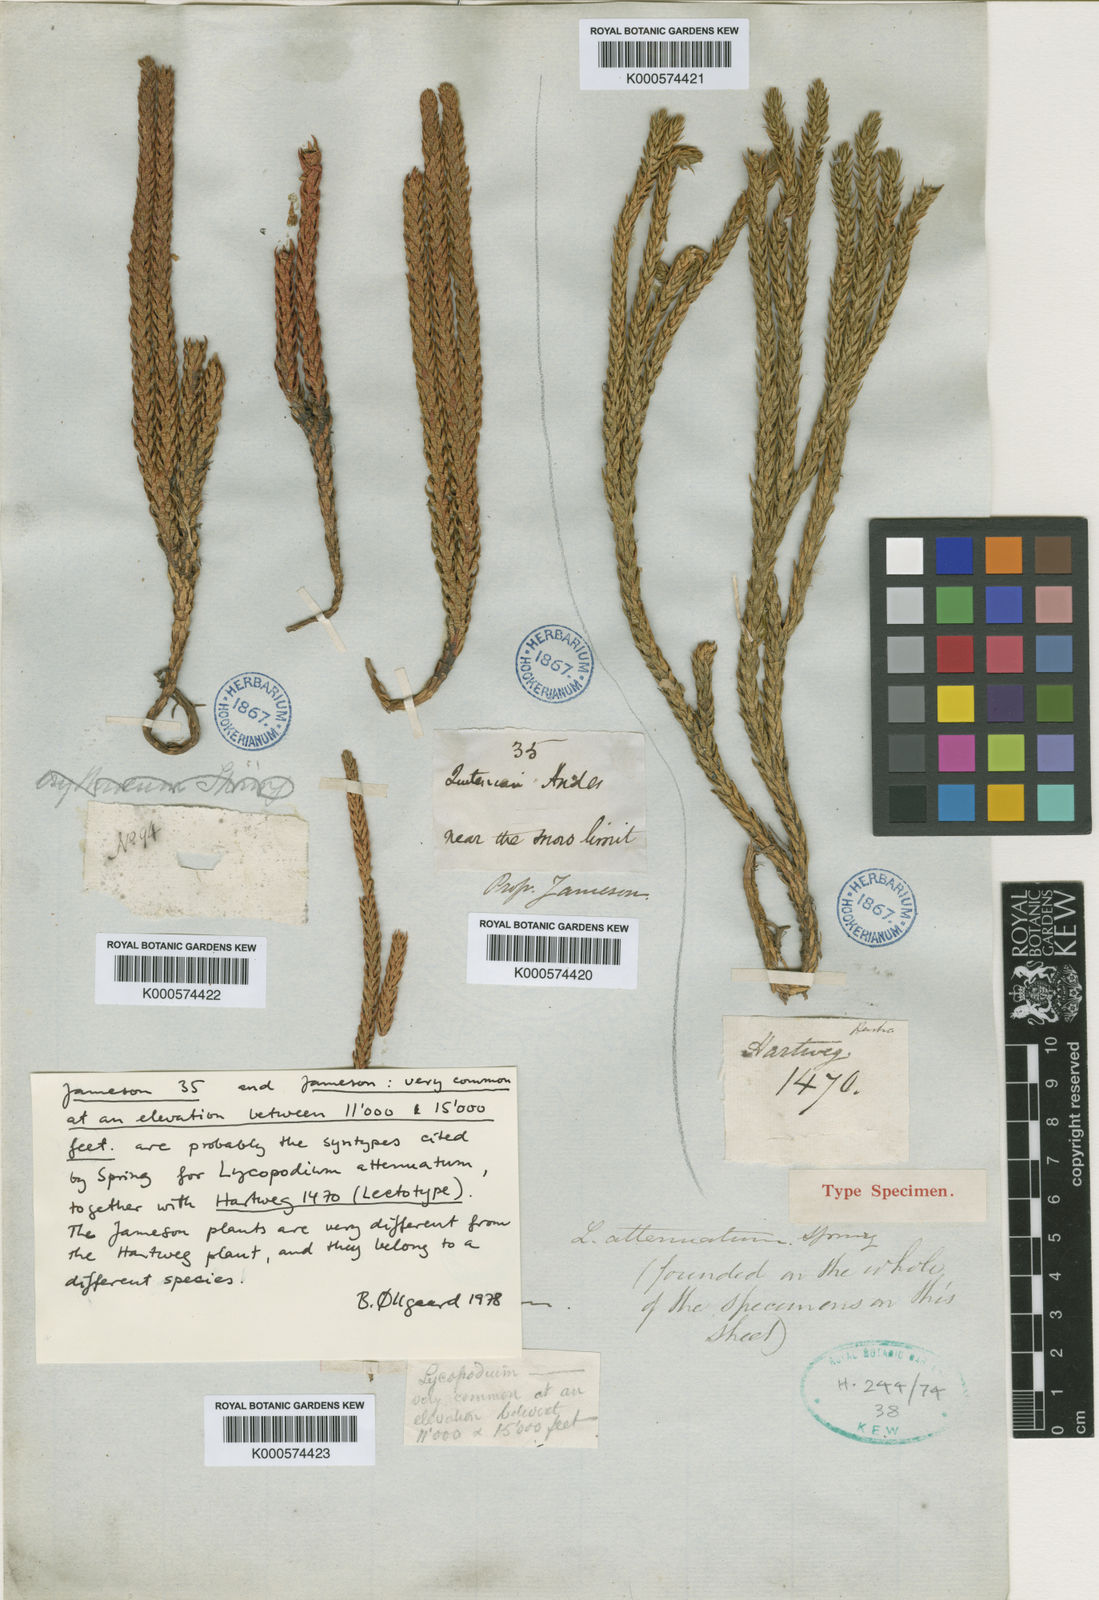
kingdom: Plantae
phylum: Tracheophyta
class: Lycopodiopsida
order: Lycopodiales
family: Lycopodiaceae
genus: Phlegmariurus
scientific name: Phlegmariurus attenuatus
